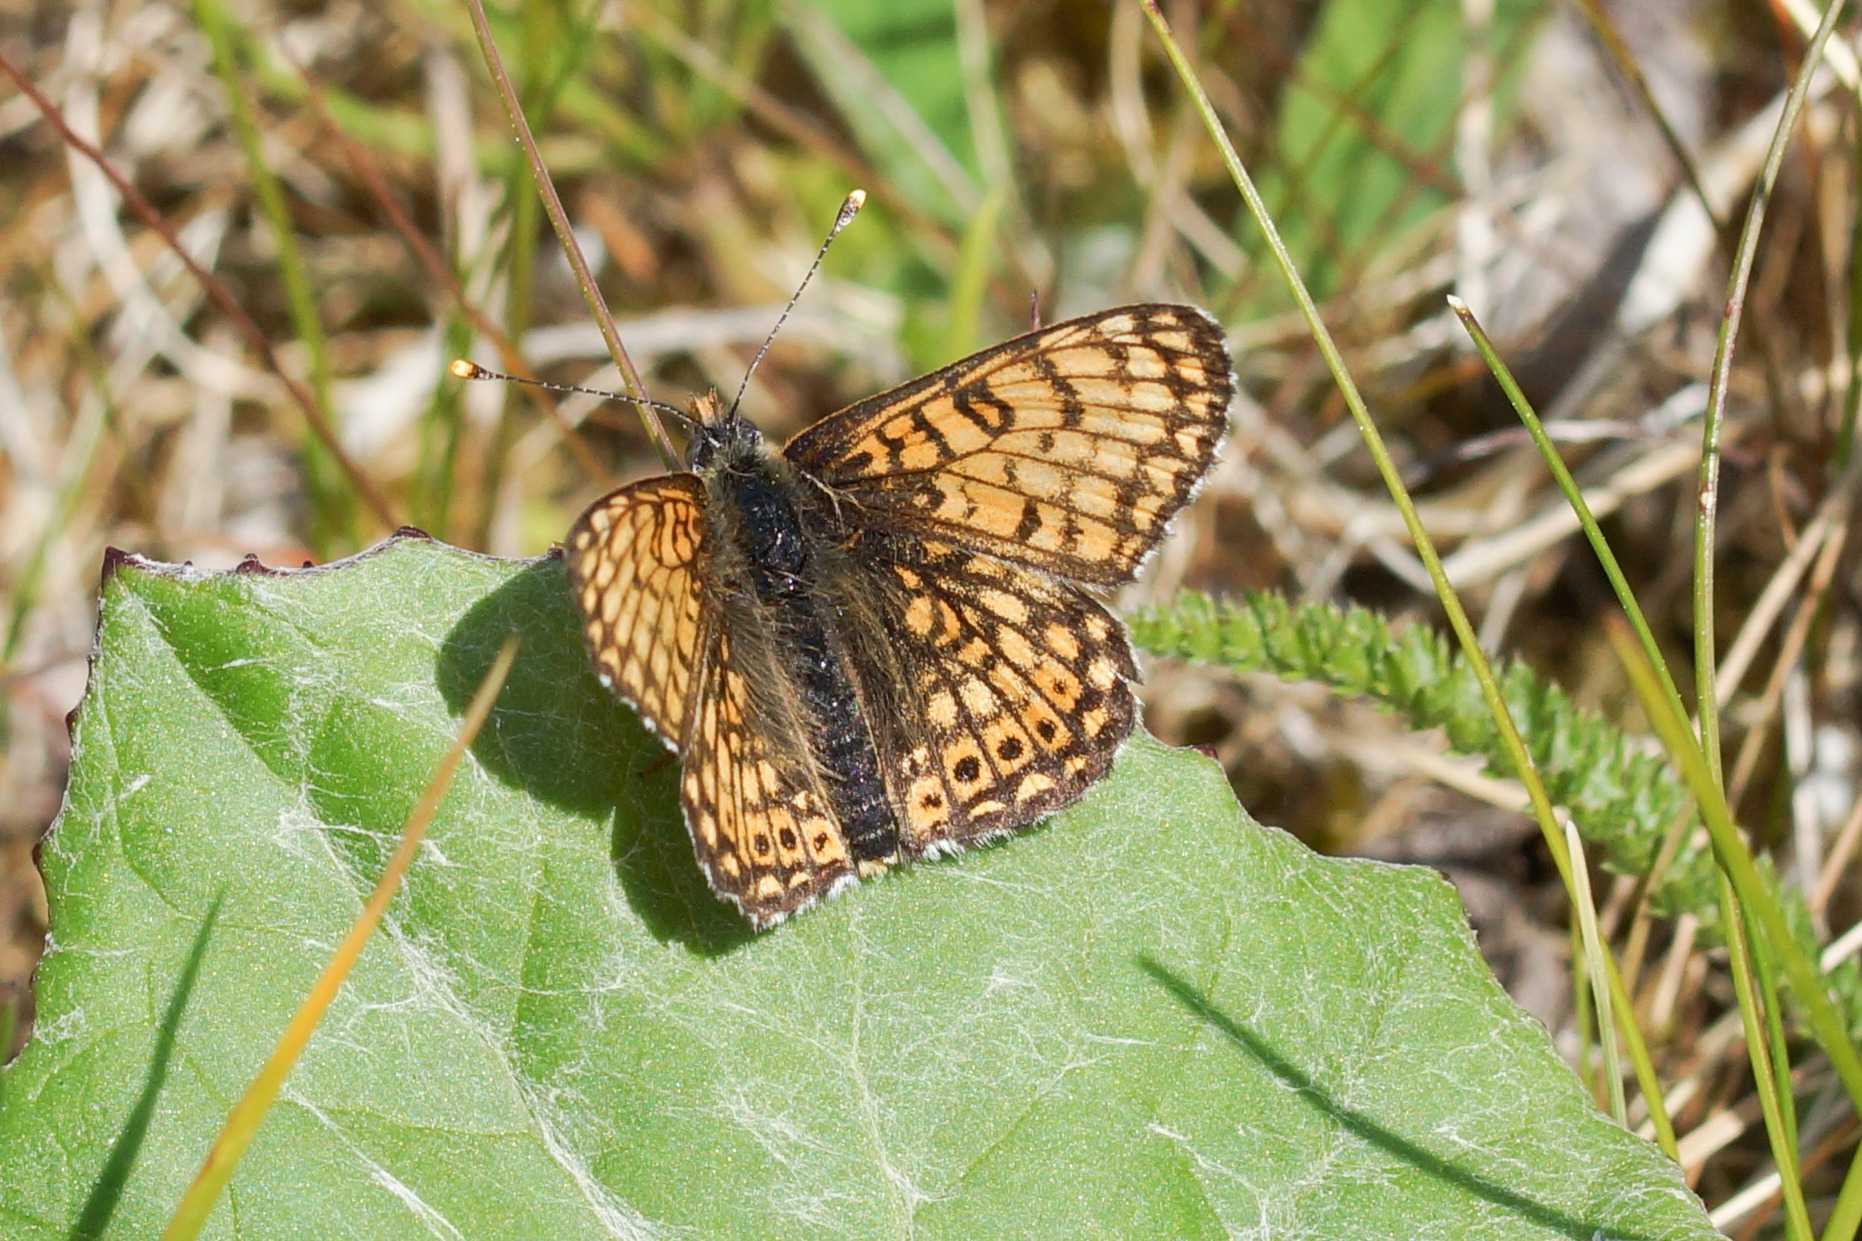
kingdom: Animalia
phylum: Arthropoda
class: Insecta
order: Lepidoptera
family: Nymphalidae
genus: Melitaea
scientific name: Melitaea cinxia
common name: Okkergul pletvinge
